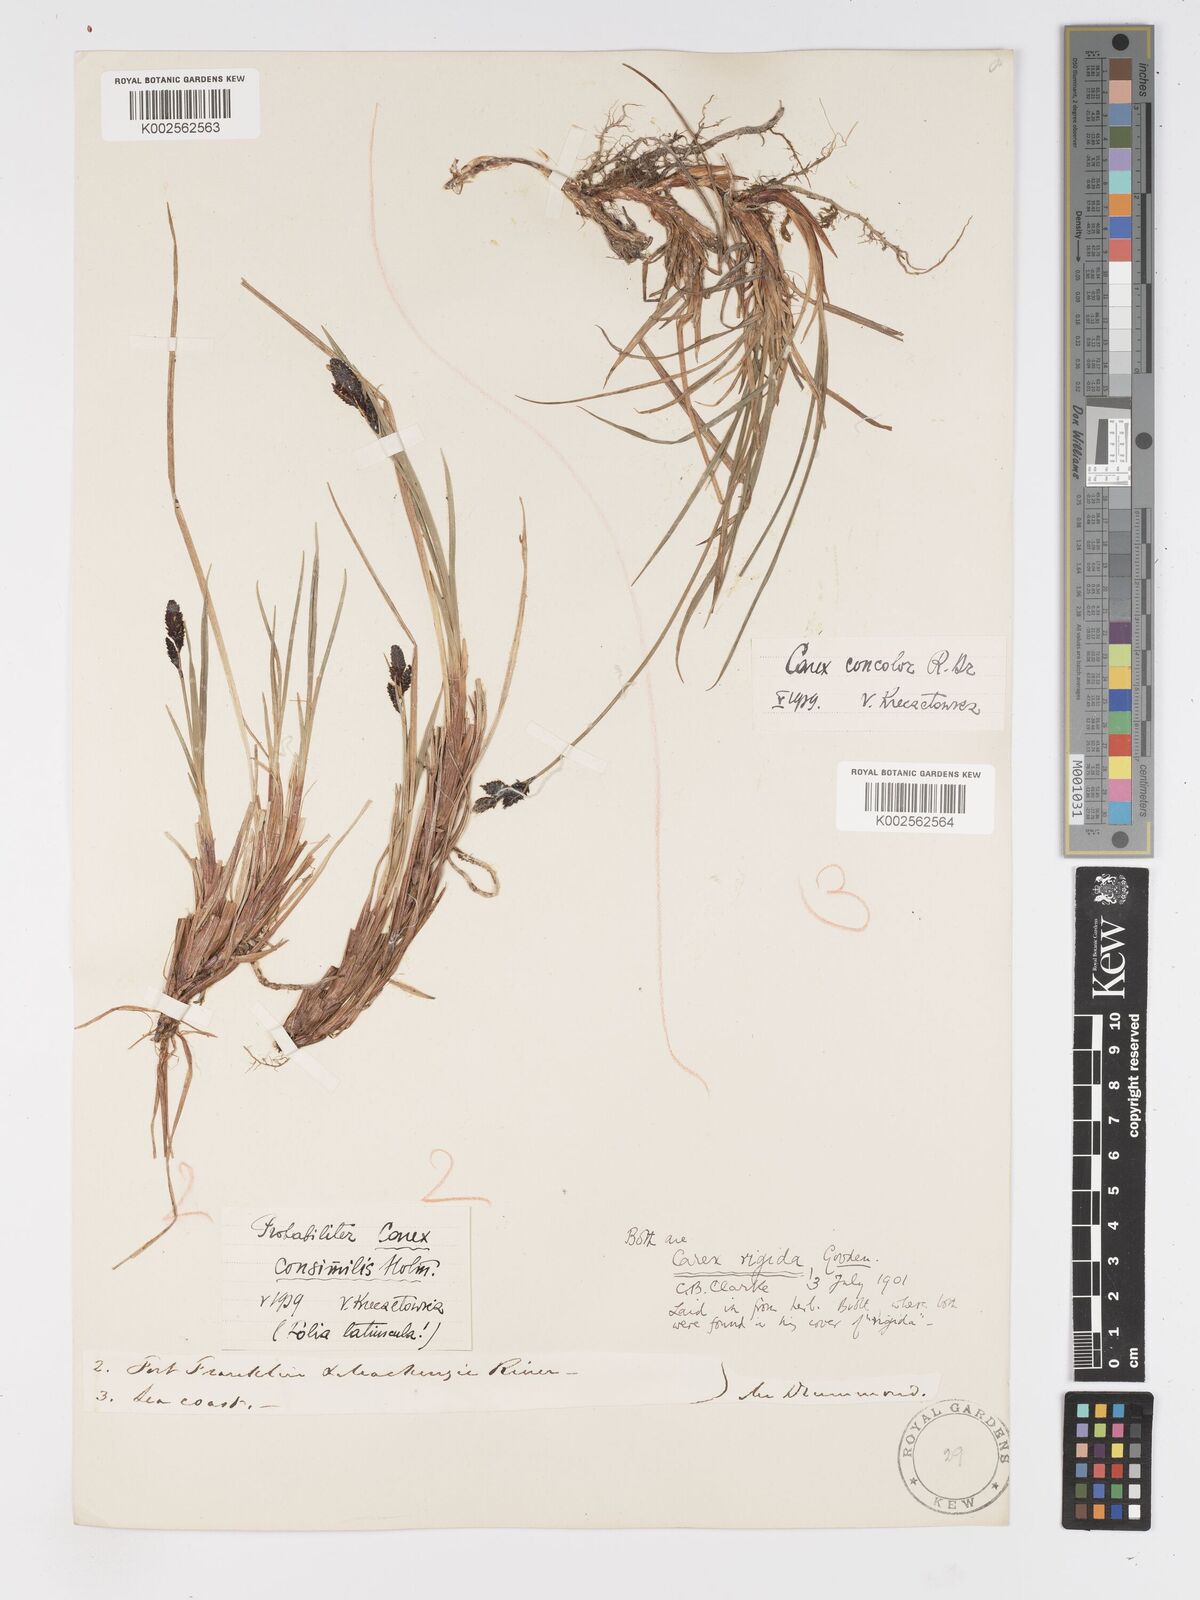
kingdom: Plantae
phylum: Tracheophyta
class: Liliopsida
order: Poales
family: Cyperaceae
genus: Carex
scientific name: Carex bigelowii
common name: Stiff sedge
